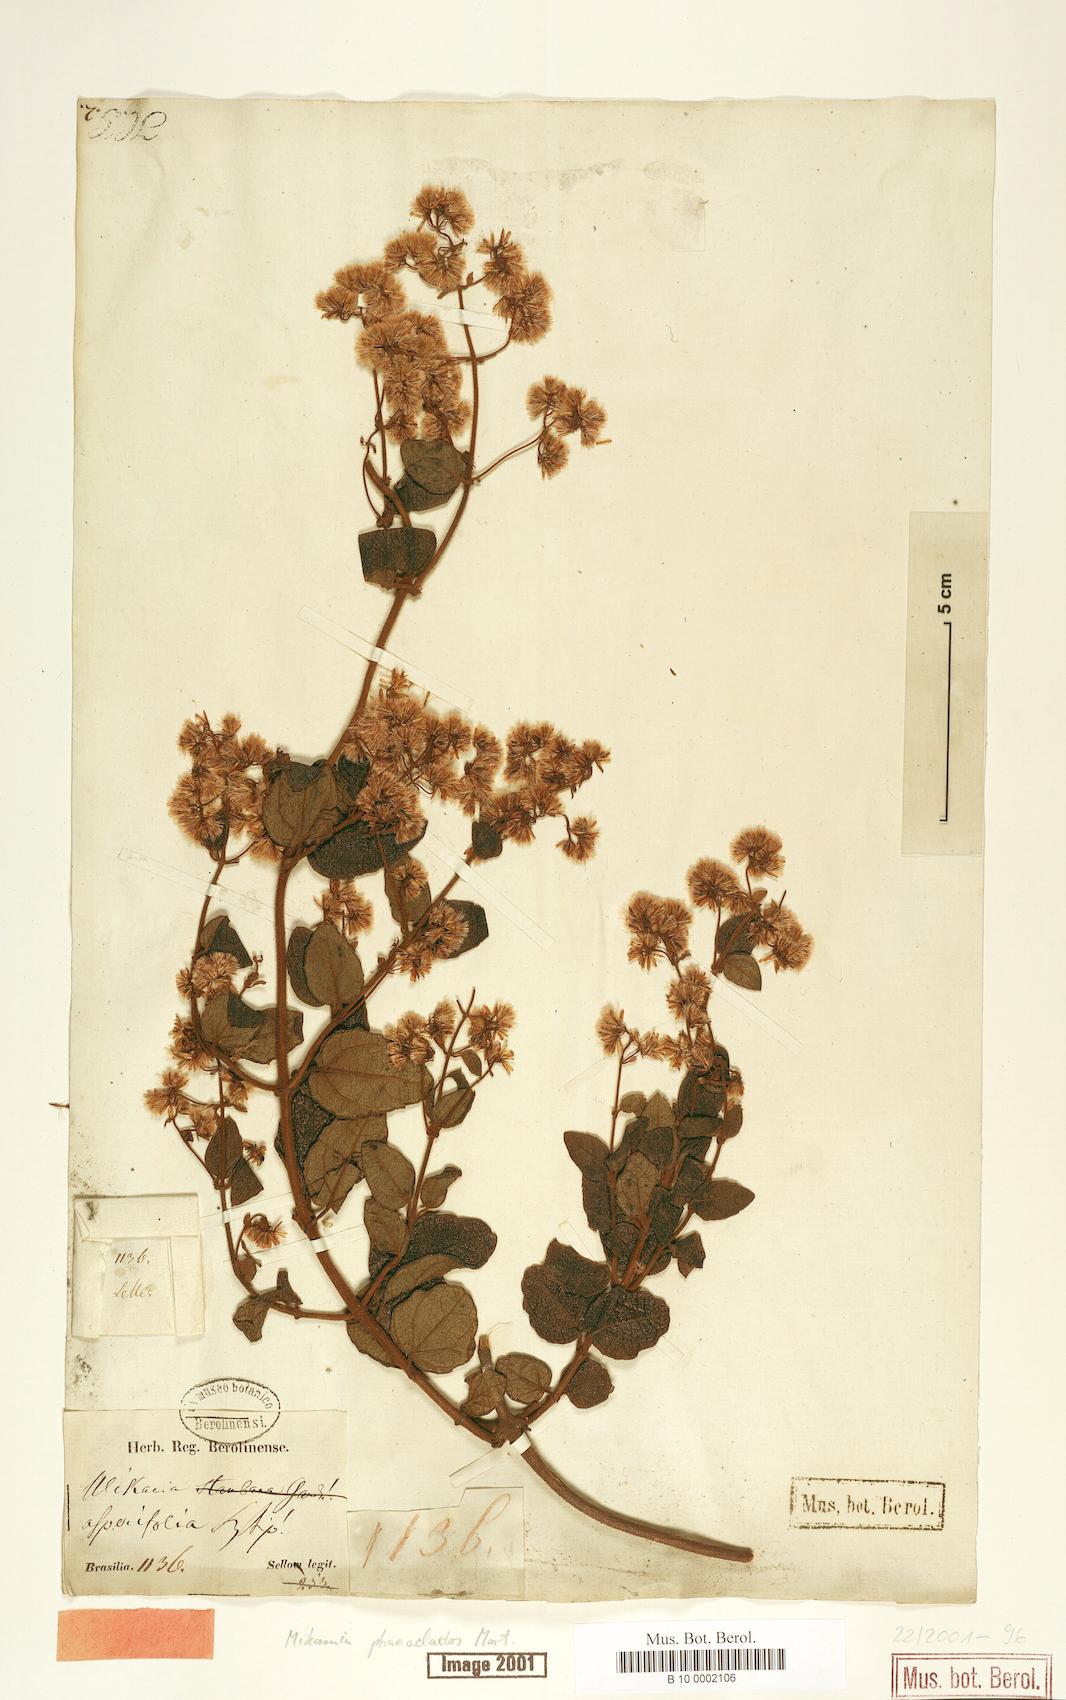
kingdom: Plantae
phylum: Tracheophyta
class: Magnoliopsida
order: Asterales
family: Asteraceae
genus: Mikania
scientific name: Mikania phaeoclados
